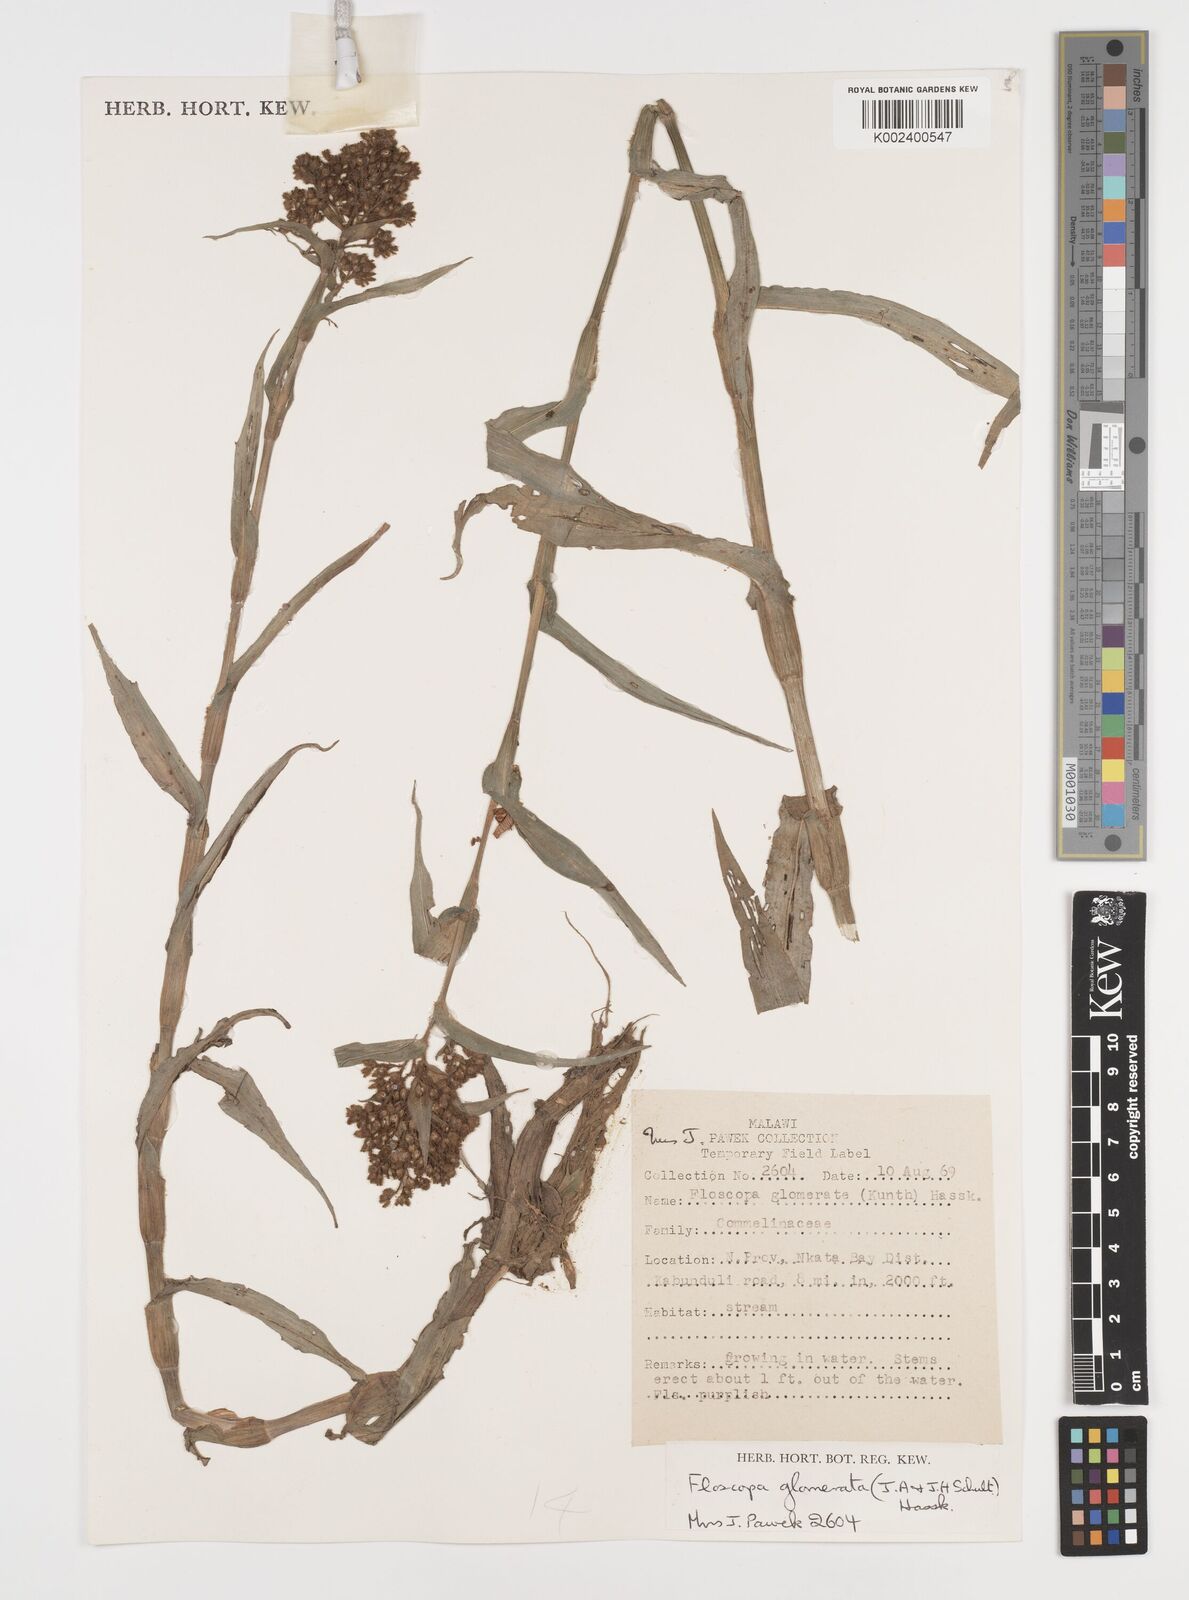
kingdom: Plantae
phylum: Tracheophyta
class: Liliopsida
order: Commelinales
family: Commelinaceae
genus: Floscopa
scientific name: Floscopa glomerata
